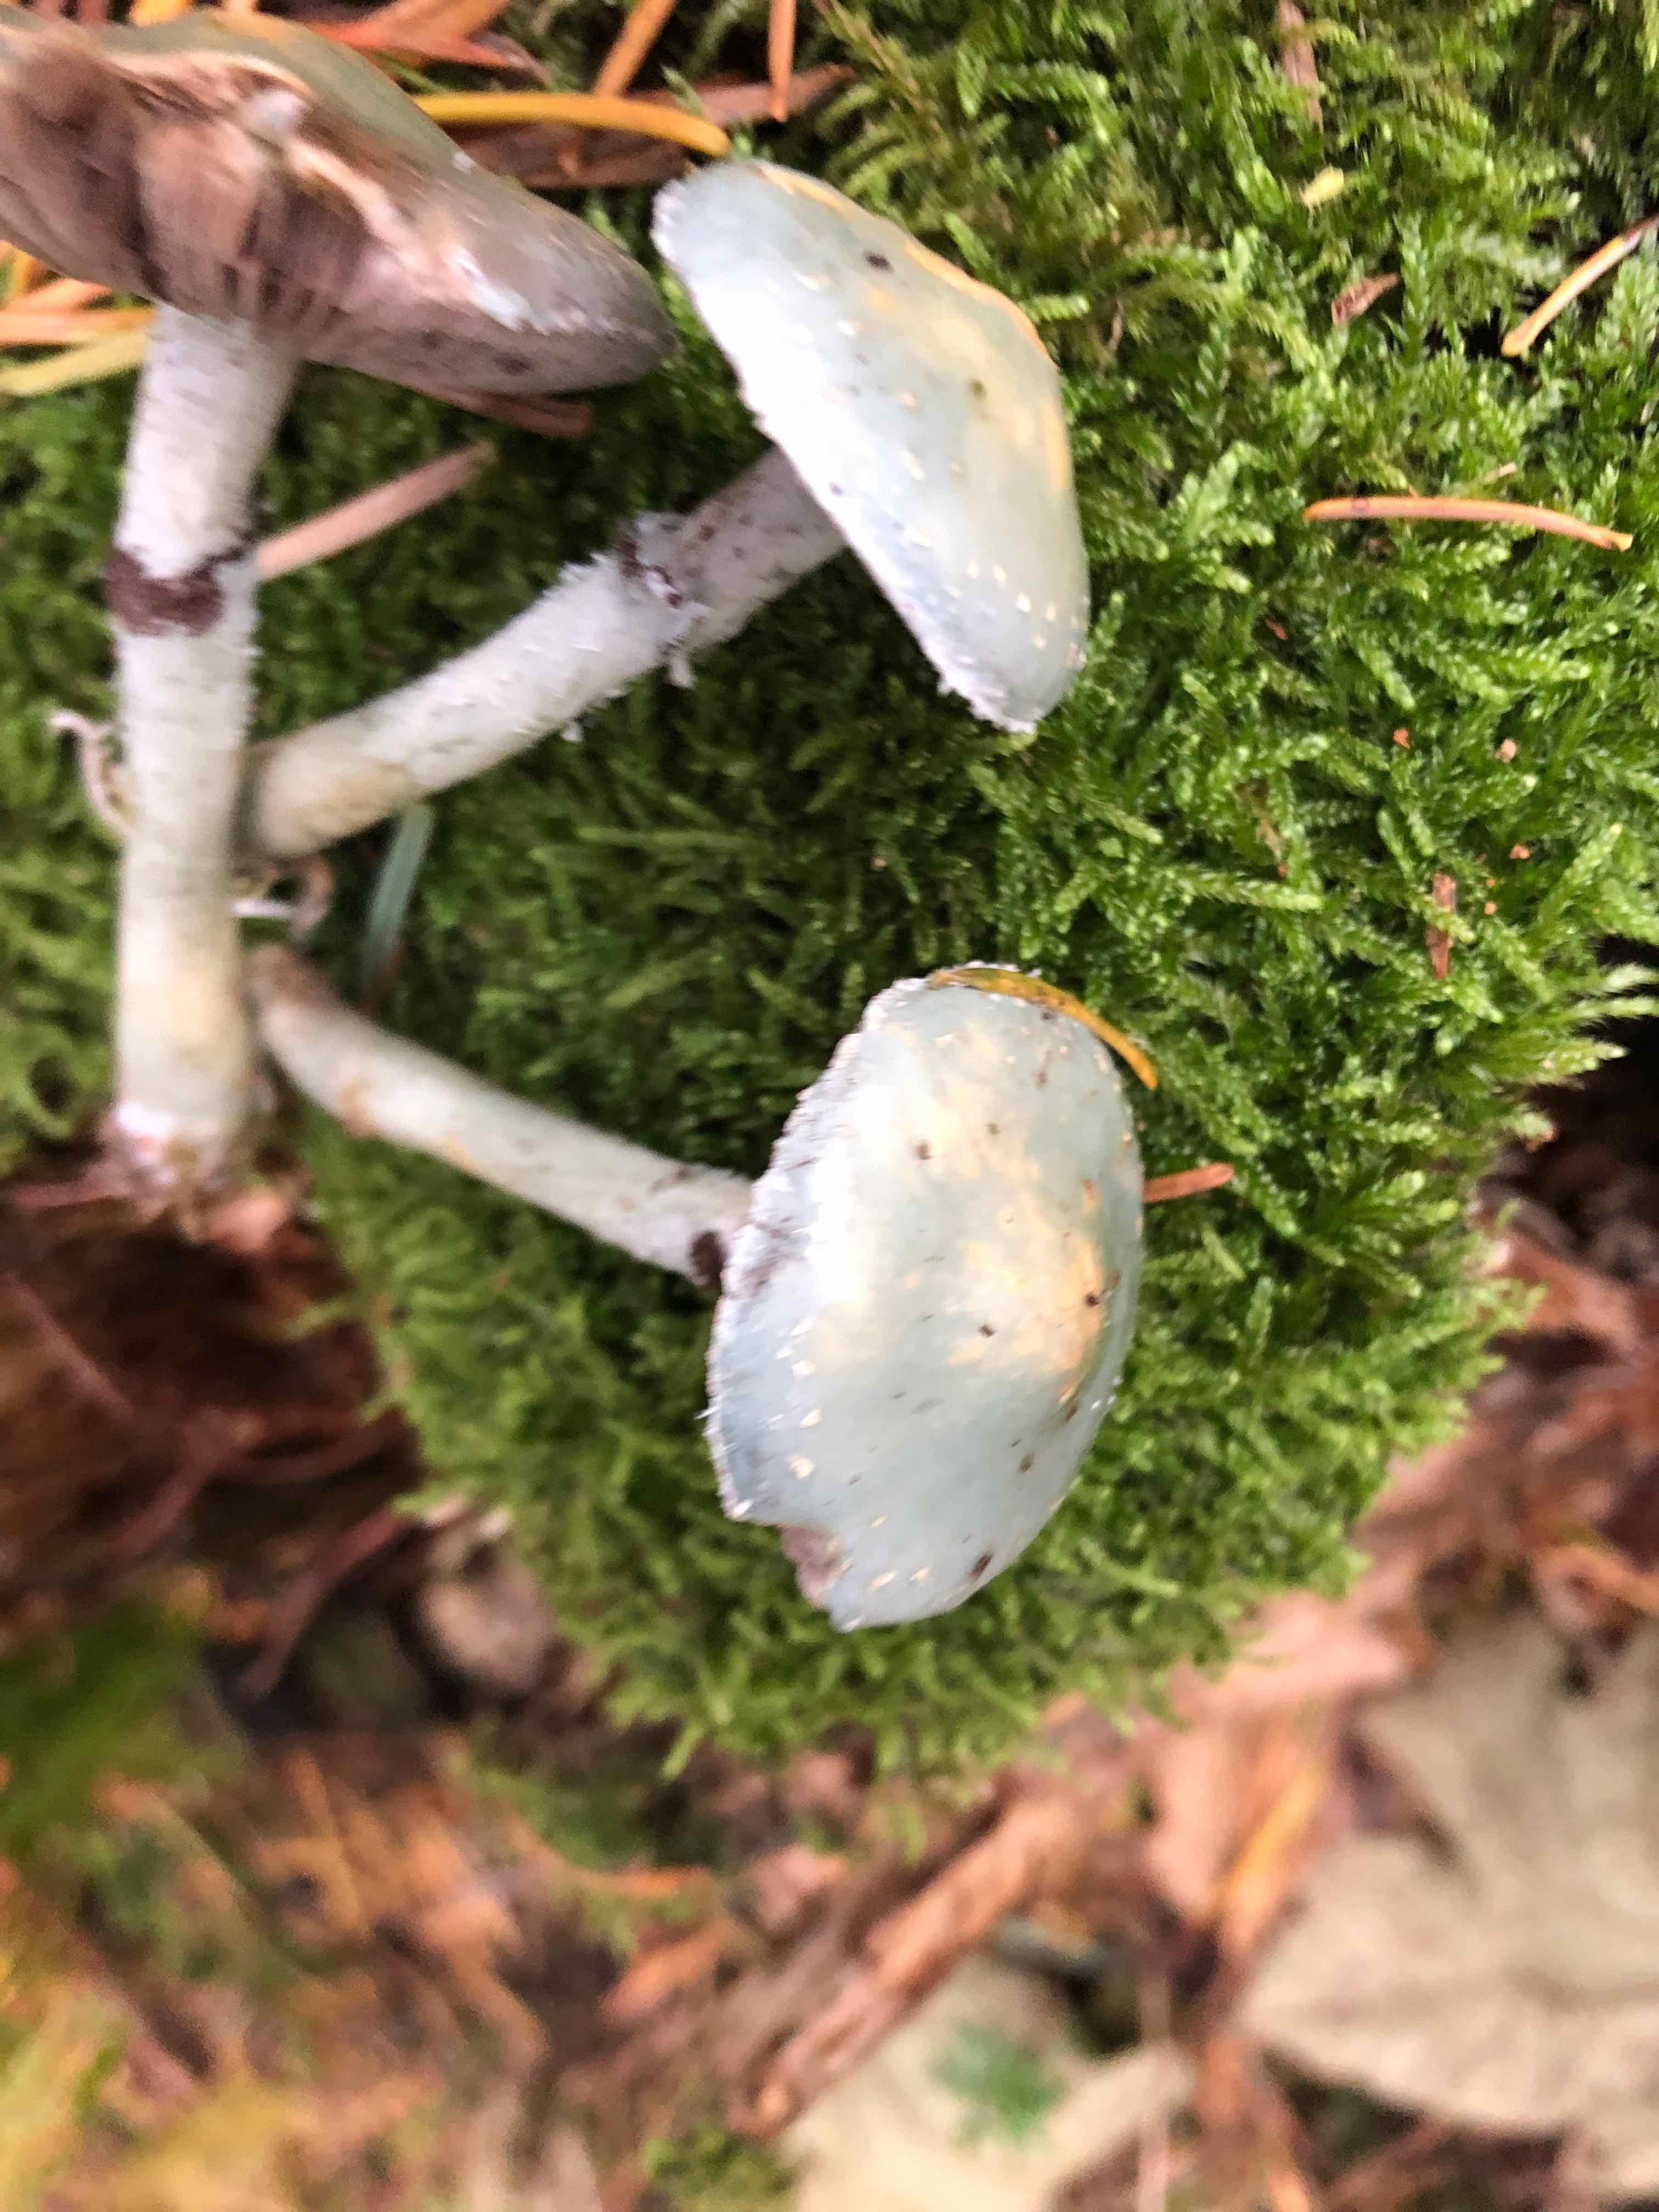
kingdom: Fungi
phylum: Basidiomycota
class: Agaricomycetes
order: Agaricales
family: Strophariaceae
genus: Stropharia
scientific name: Stropharia aeruginosa
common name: spanskgrøn bredblad
